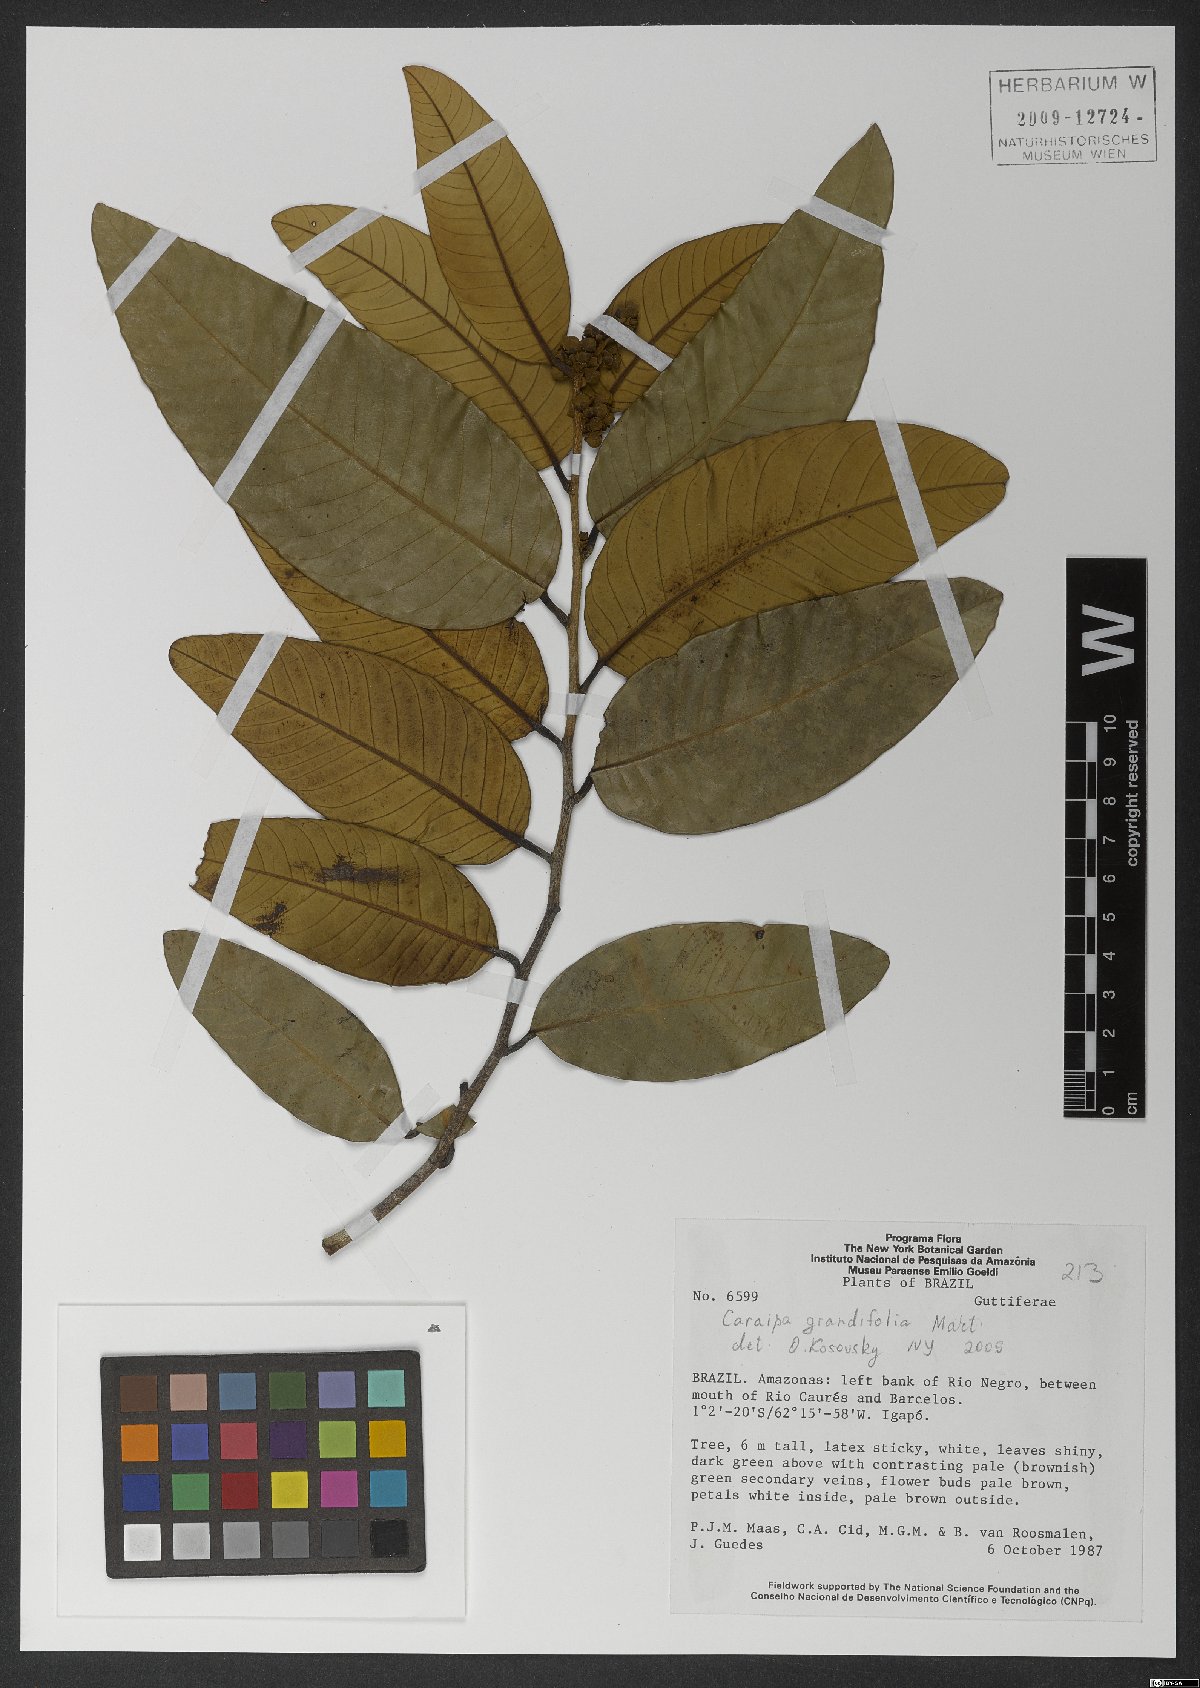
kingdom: Plantae
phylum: Tracheophyta
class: Magnoliopsida
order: Malpighiales
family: Calophyllaceae
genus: Caraipa
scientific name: Caraipa grandifolia
